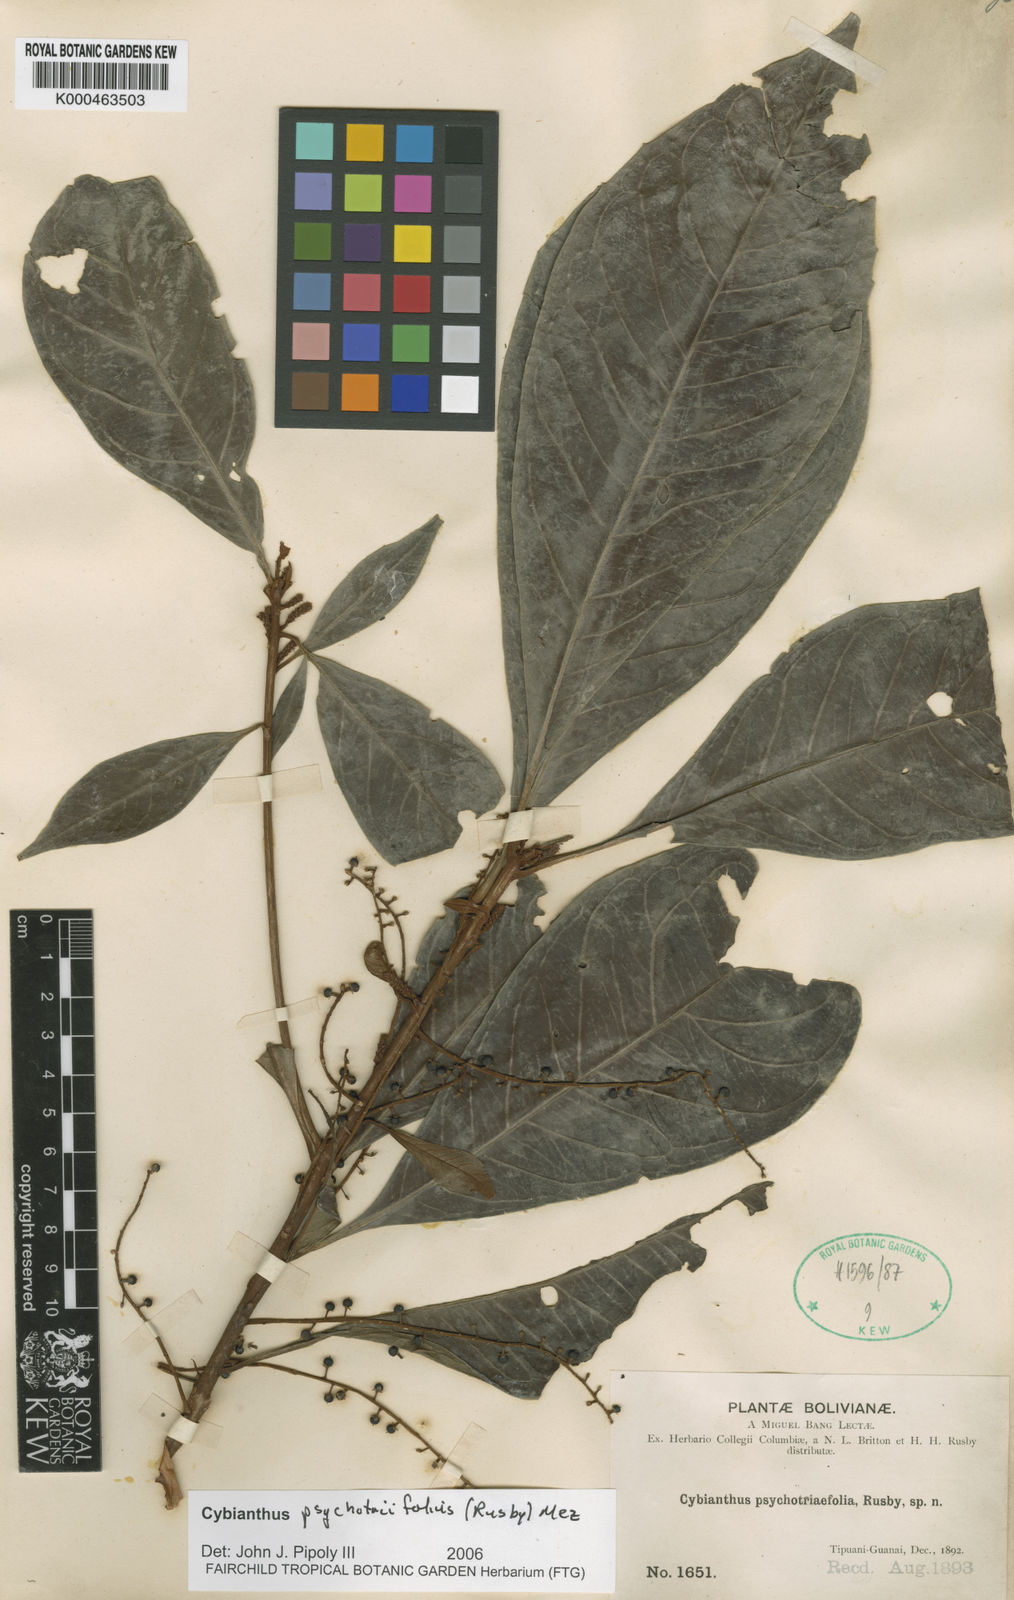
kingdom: Plantae
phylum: Tracheophyta
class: Magnoliopsida
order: Ericales
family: Primulaceae
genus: Cybianthus
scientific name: Cybianthus psychotriifolius
